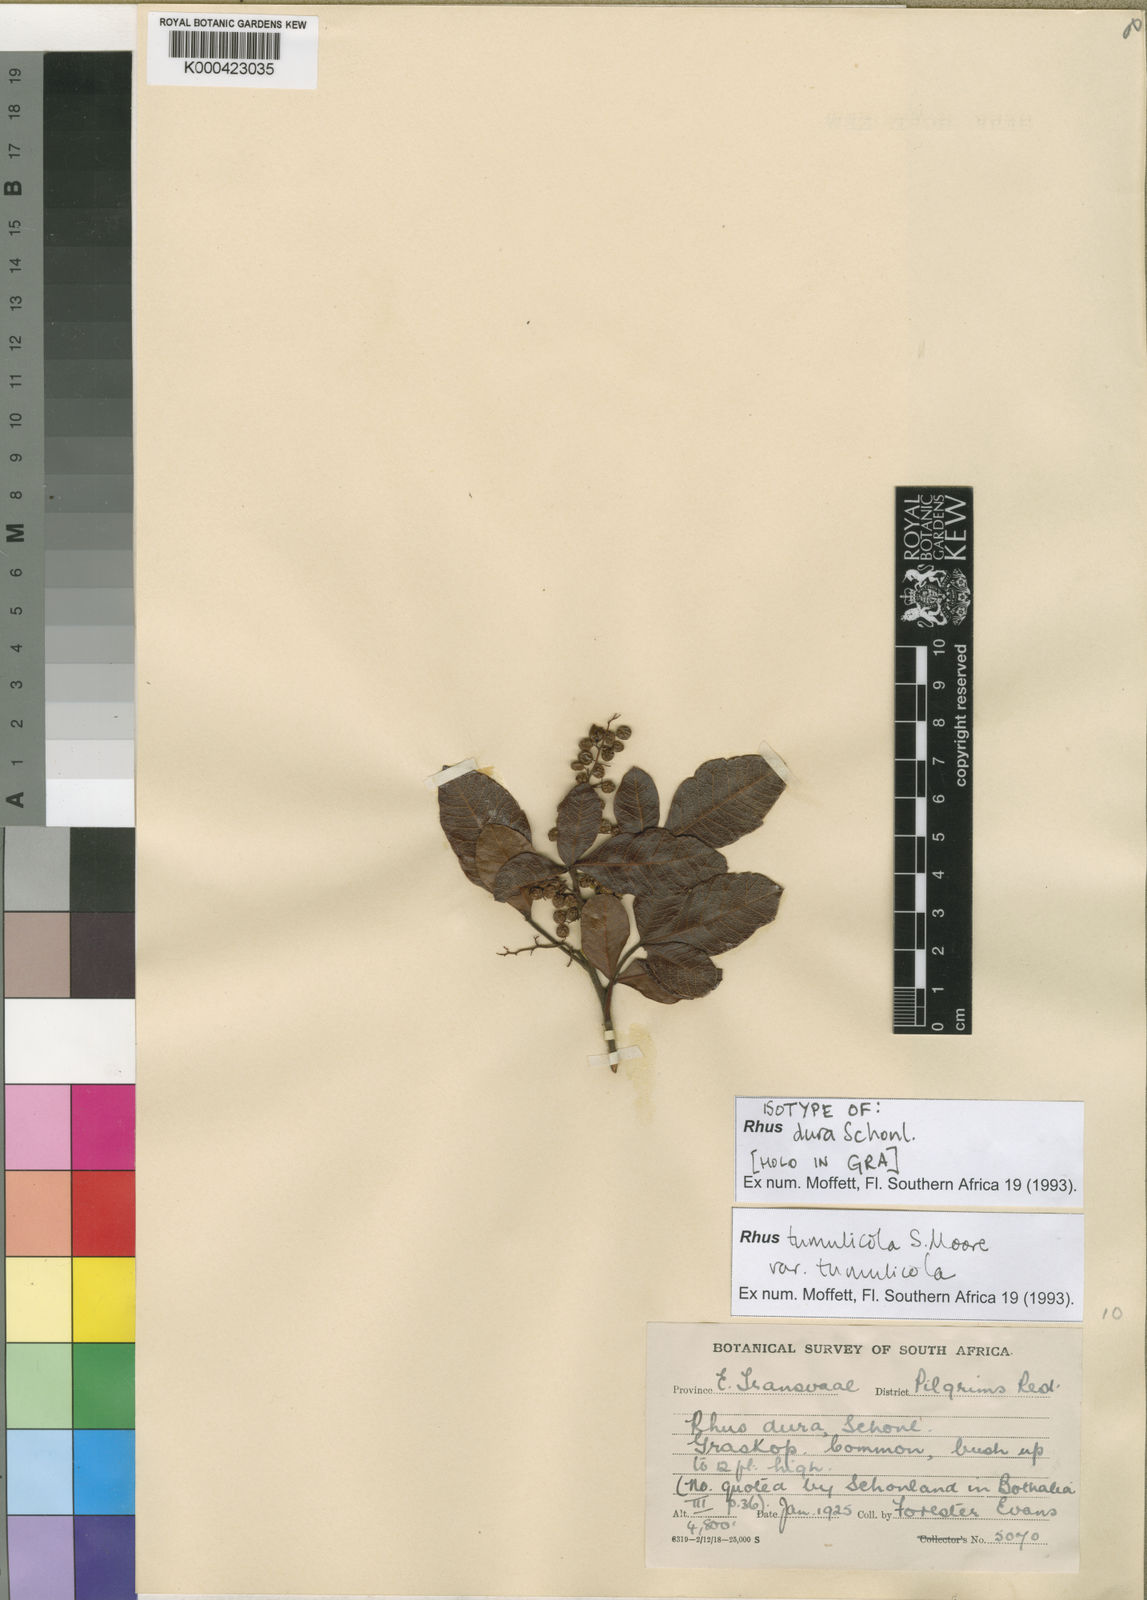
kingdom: Plantae
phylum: Tracheophyta
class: Magnoliopsida
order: Sapindales
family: Anacardiaceae
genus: Rhus
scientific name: Rhus
